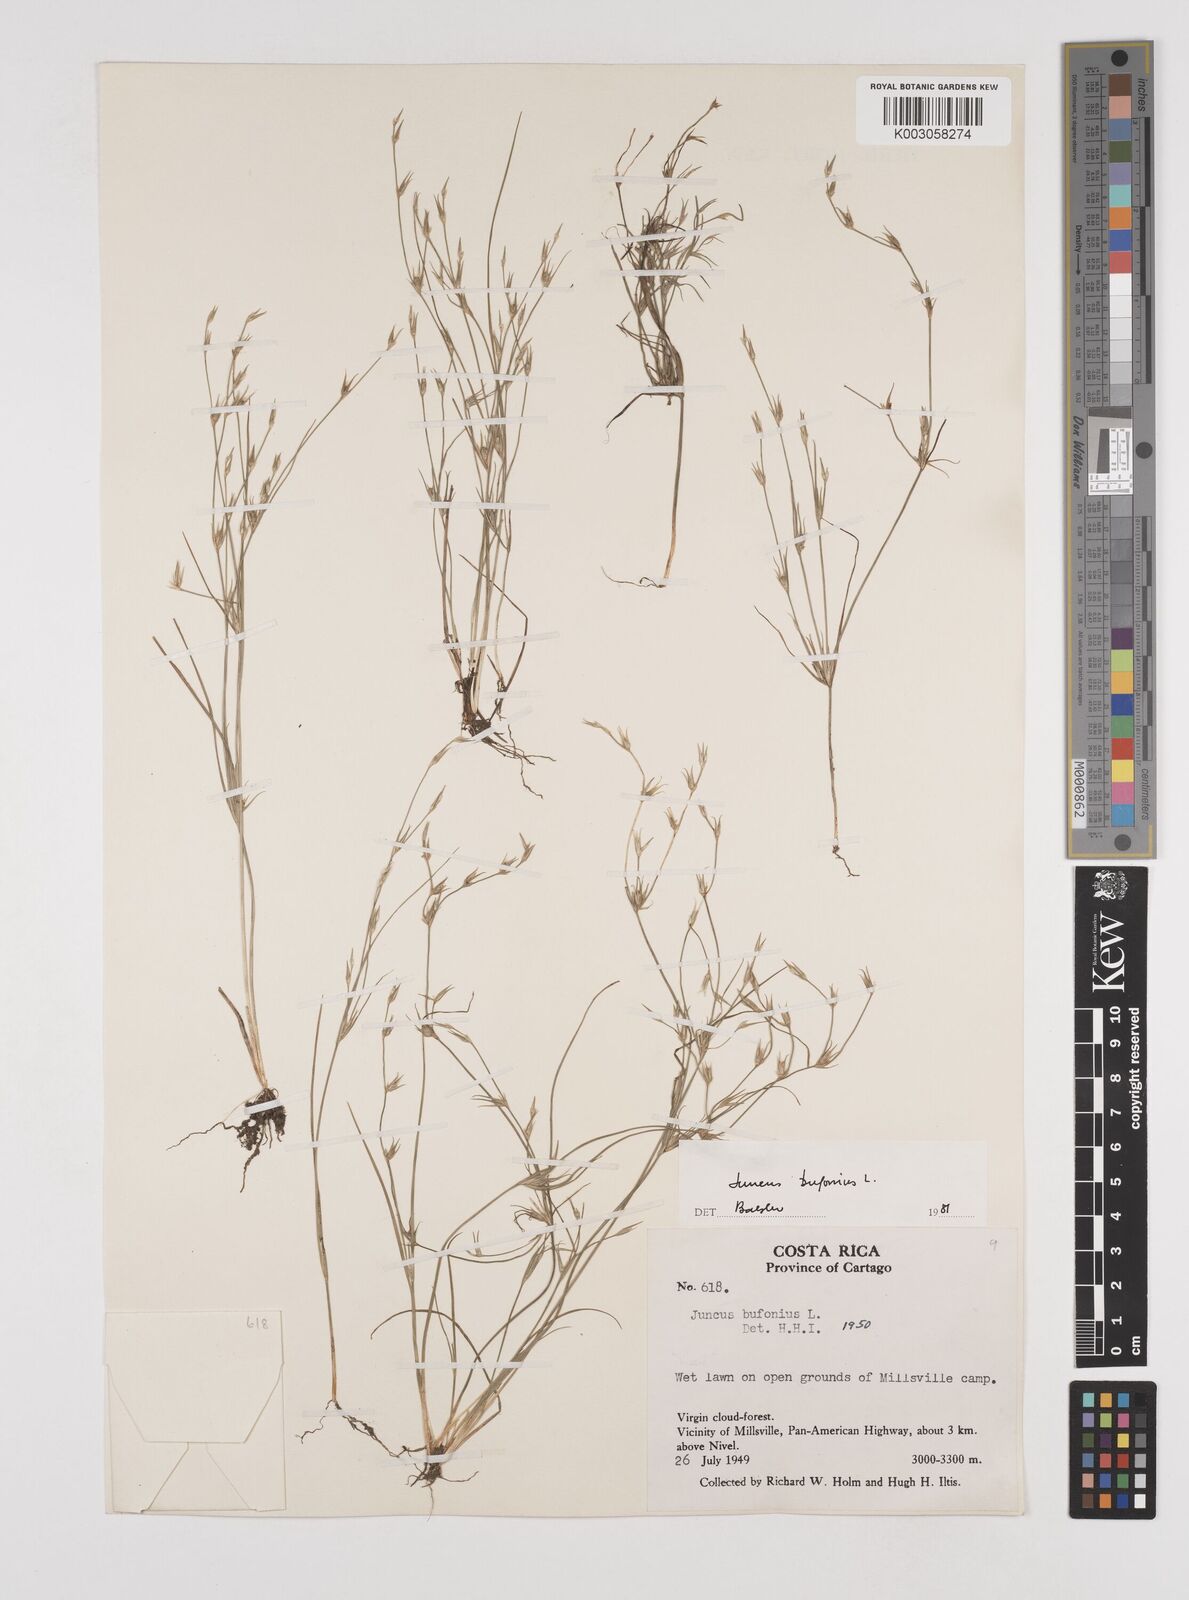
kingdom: Plantae
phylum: Tracheophyta
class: Liliopsida
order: Poales
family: Juncaceae
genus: Juncus
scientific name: Juncus bufonius
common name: Toad rush
